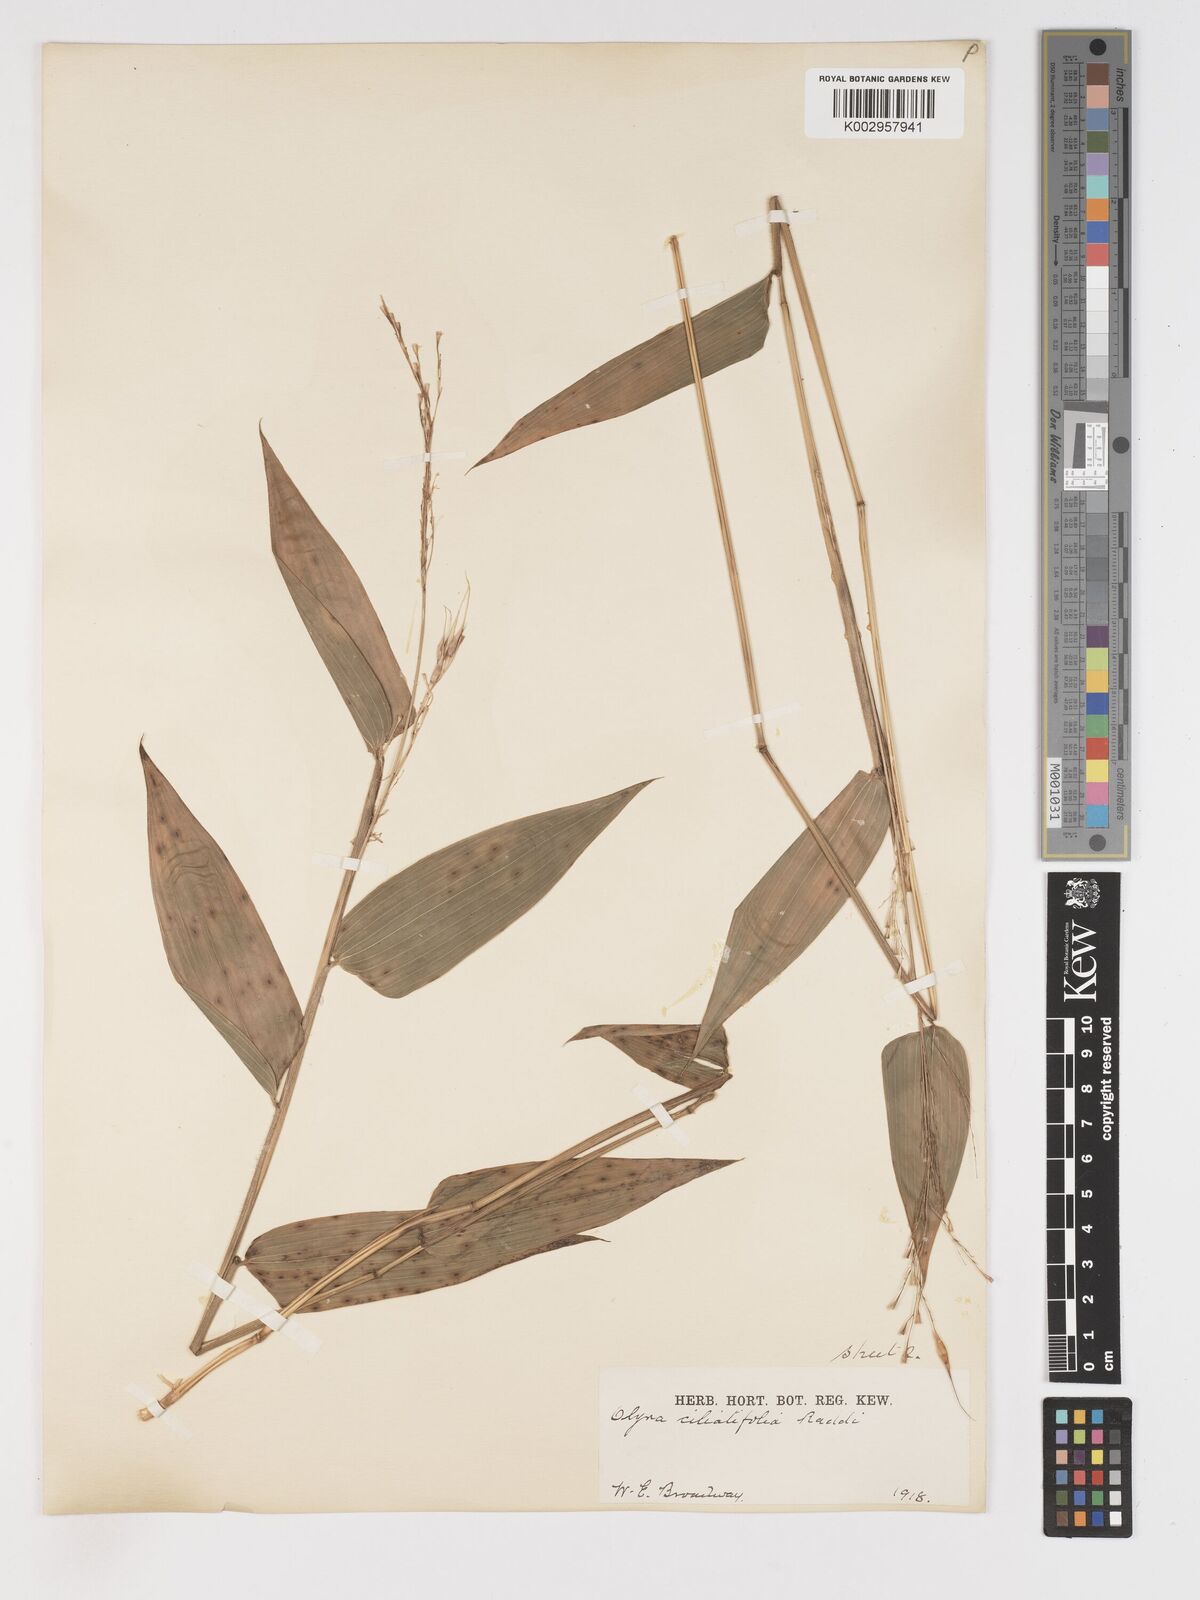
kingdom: Plantae
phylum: Tracheophyta
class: Liliopsida
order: Poales
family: Poaceae
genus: Olyra
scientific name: Olyra ciliatifolia
